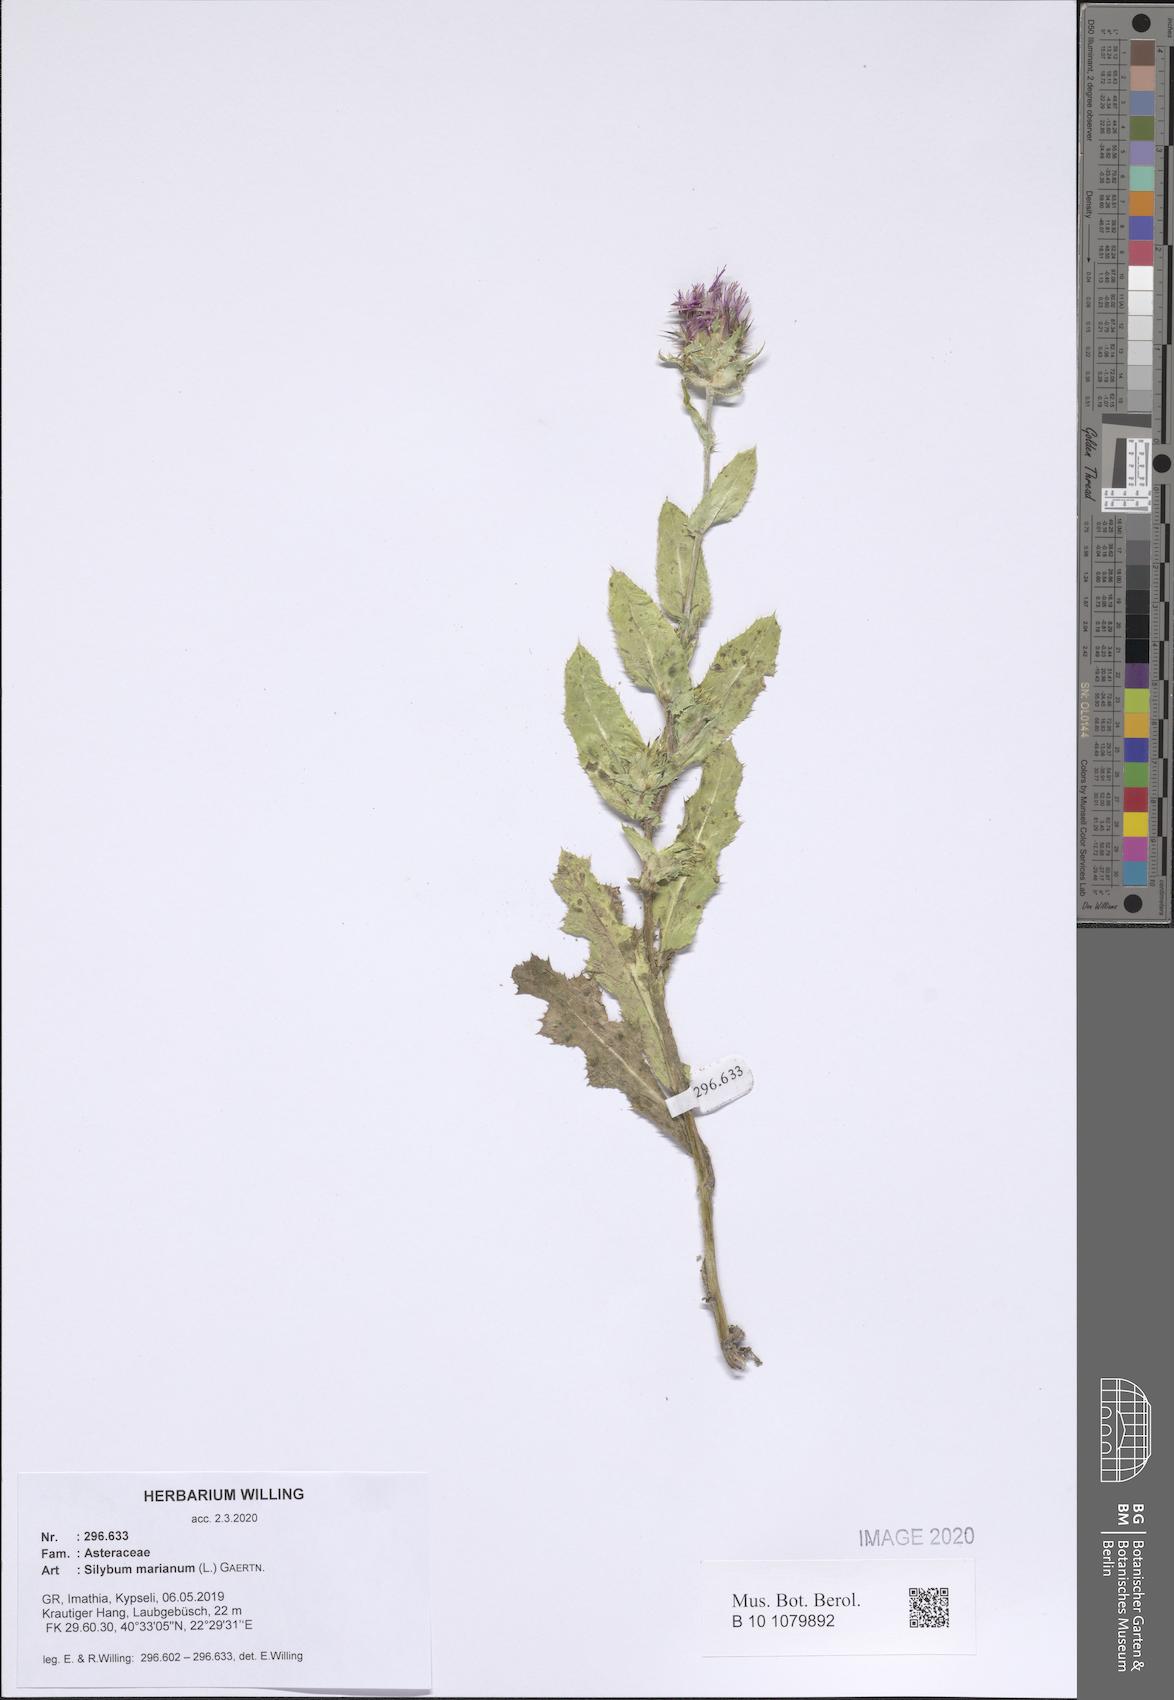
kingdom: Plantae
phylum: Tracheophyta
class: Magnoliopsida
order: Asterales
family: Asteraceae
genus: Silybum
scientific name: Silybum marianum
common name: Milk thistle
